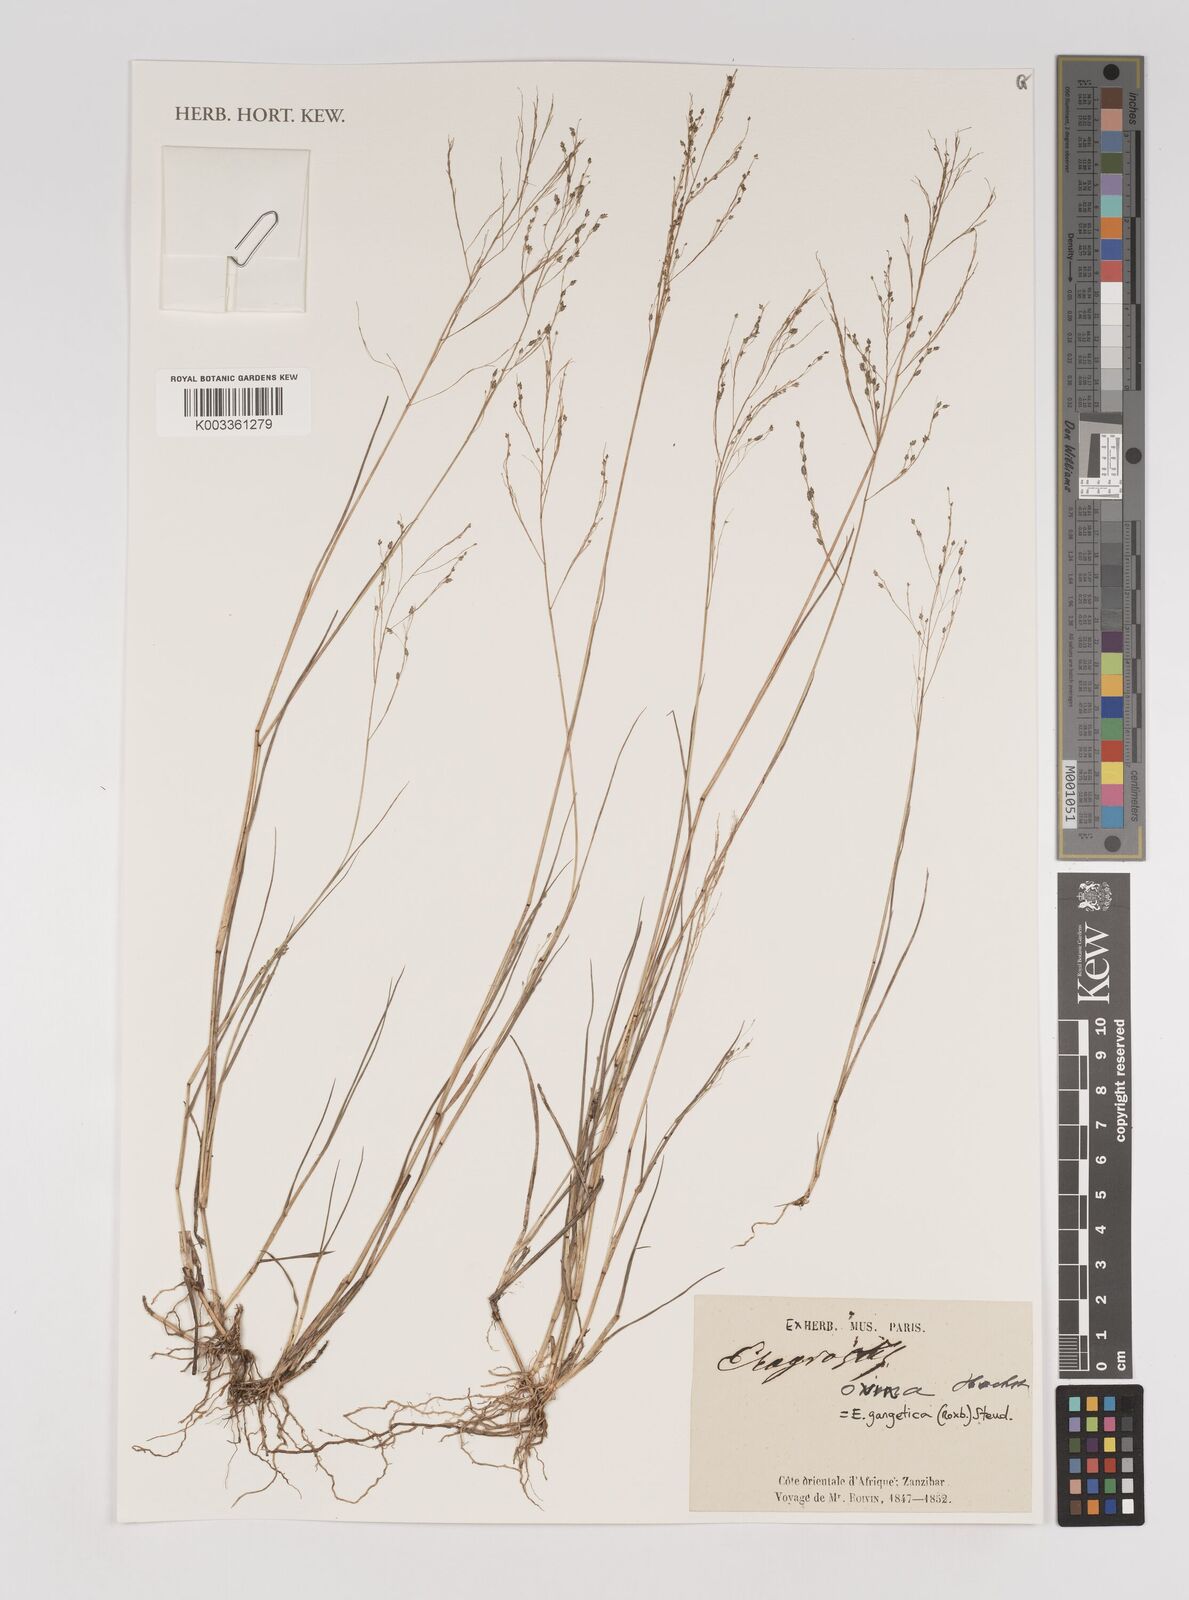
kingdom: Plantae
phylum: Tracheophyta
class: Liliopsida
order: Poales
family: Poaceae
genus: Eragrostis
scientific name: Eragrostis gangetica
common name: Slimflower lovegrass
